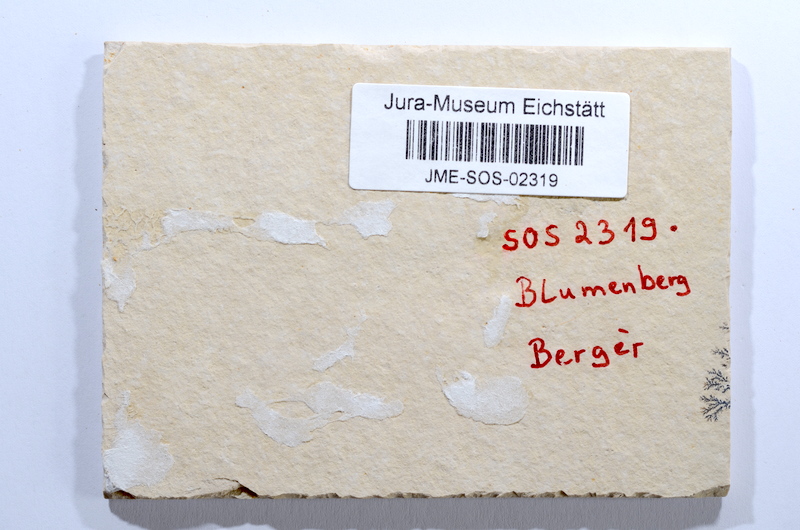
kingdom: Animalia
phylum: Chordata
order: Elopiformes
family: Anaethalionidae
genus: Anaethalion
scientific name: Anaethalion angustus
